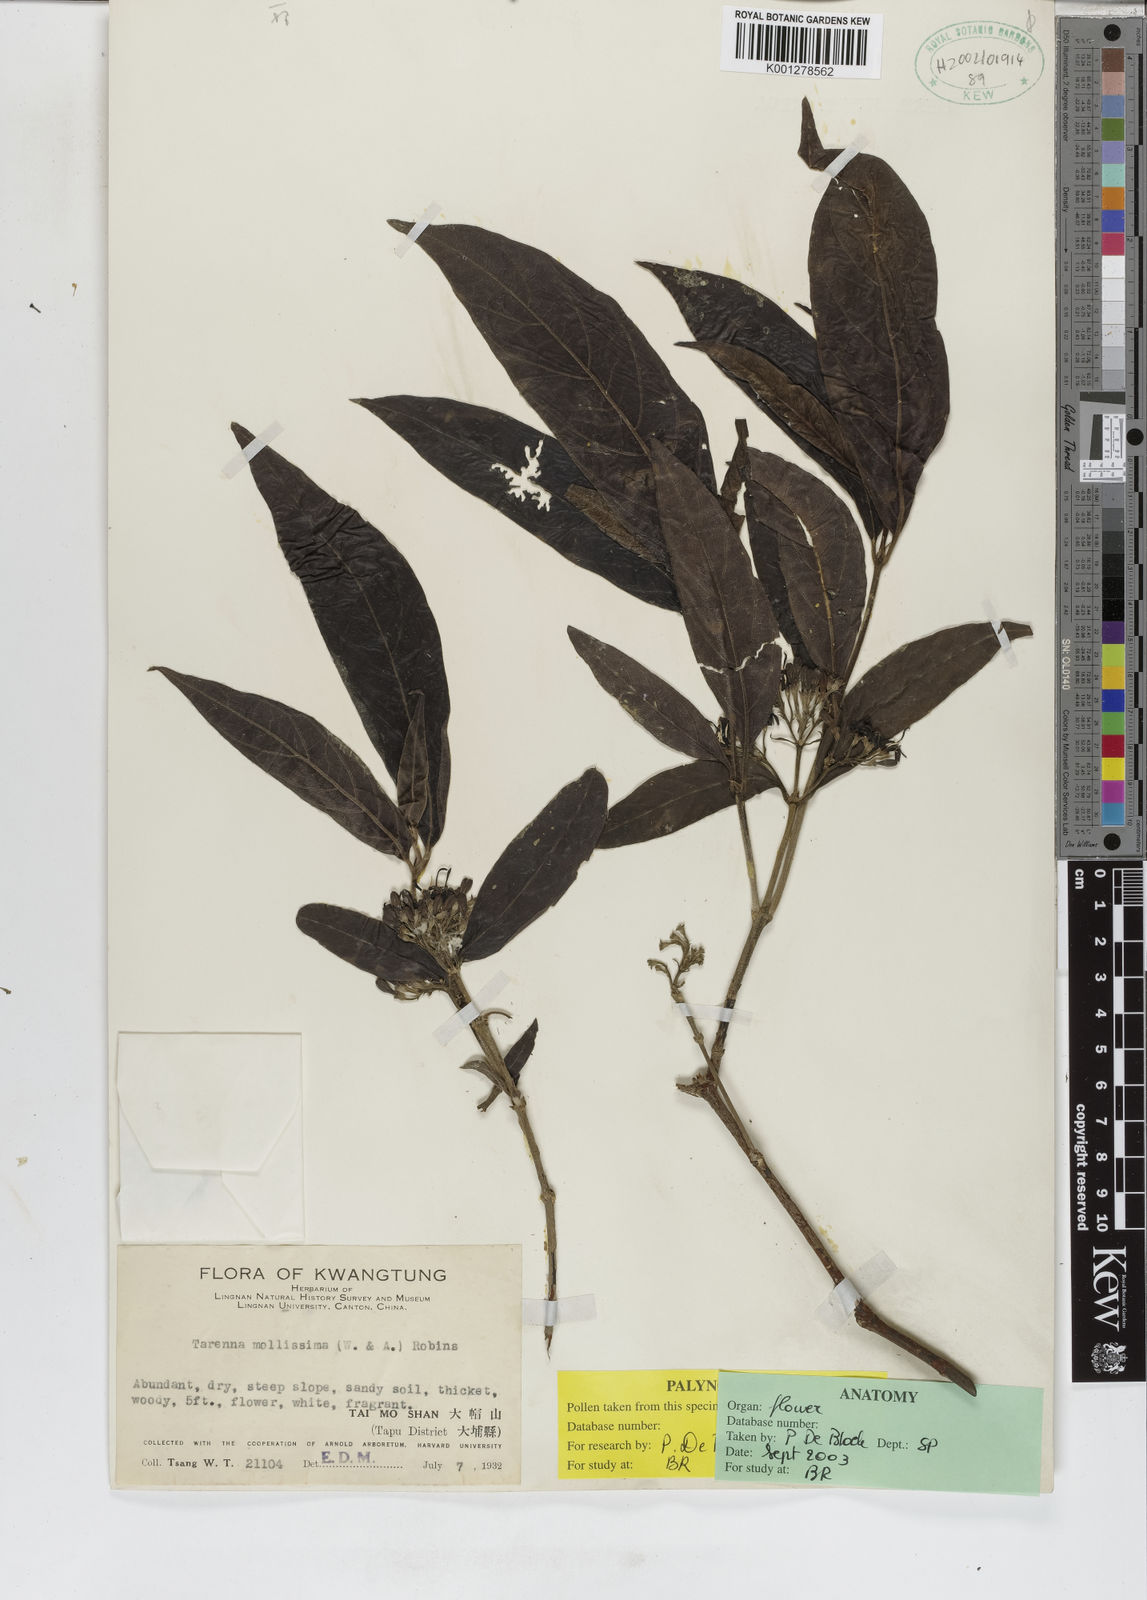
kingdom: Plantae
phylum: Tracheophyta
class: Magnoliopsida
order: Gentianales
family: Rubiaceae
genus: Tarenna
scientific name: Tarenna mollissima
